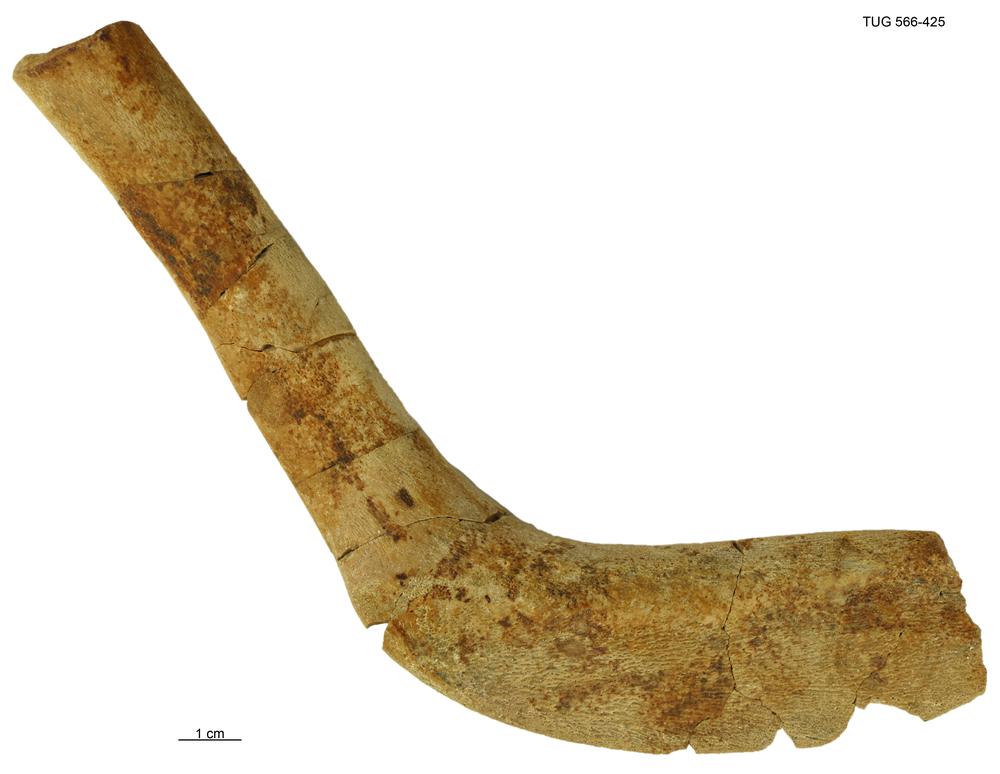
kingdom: Animalia
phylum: Chordata
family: Homostiidae
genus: Homostius
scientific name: Homostius
